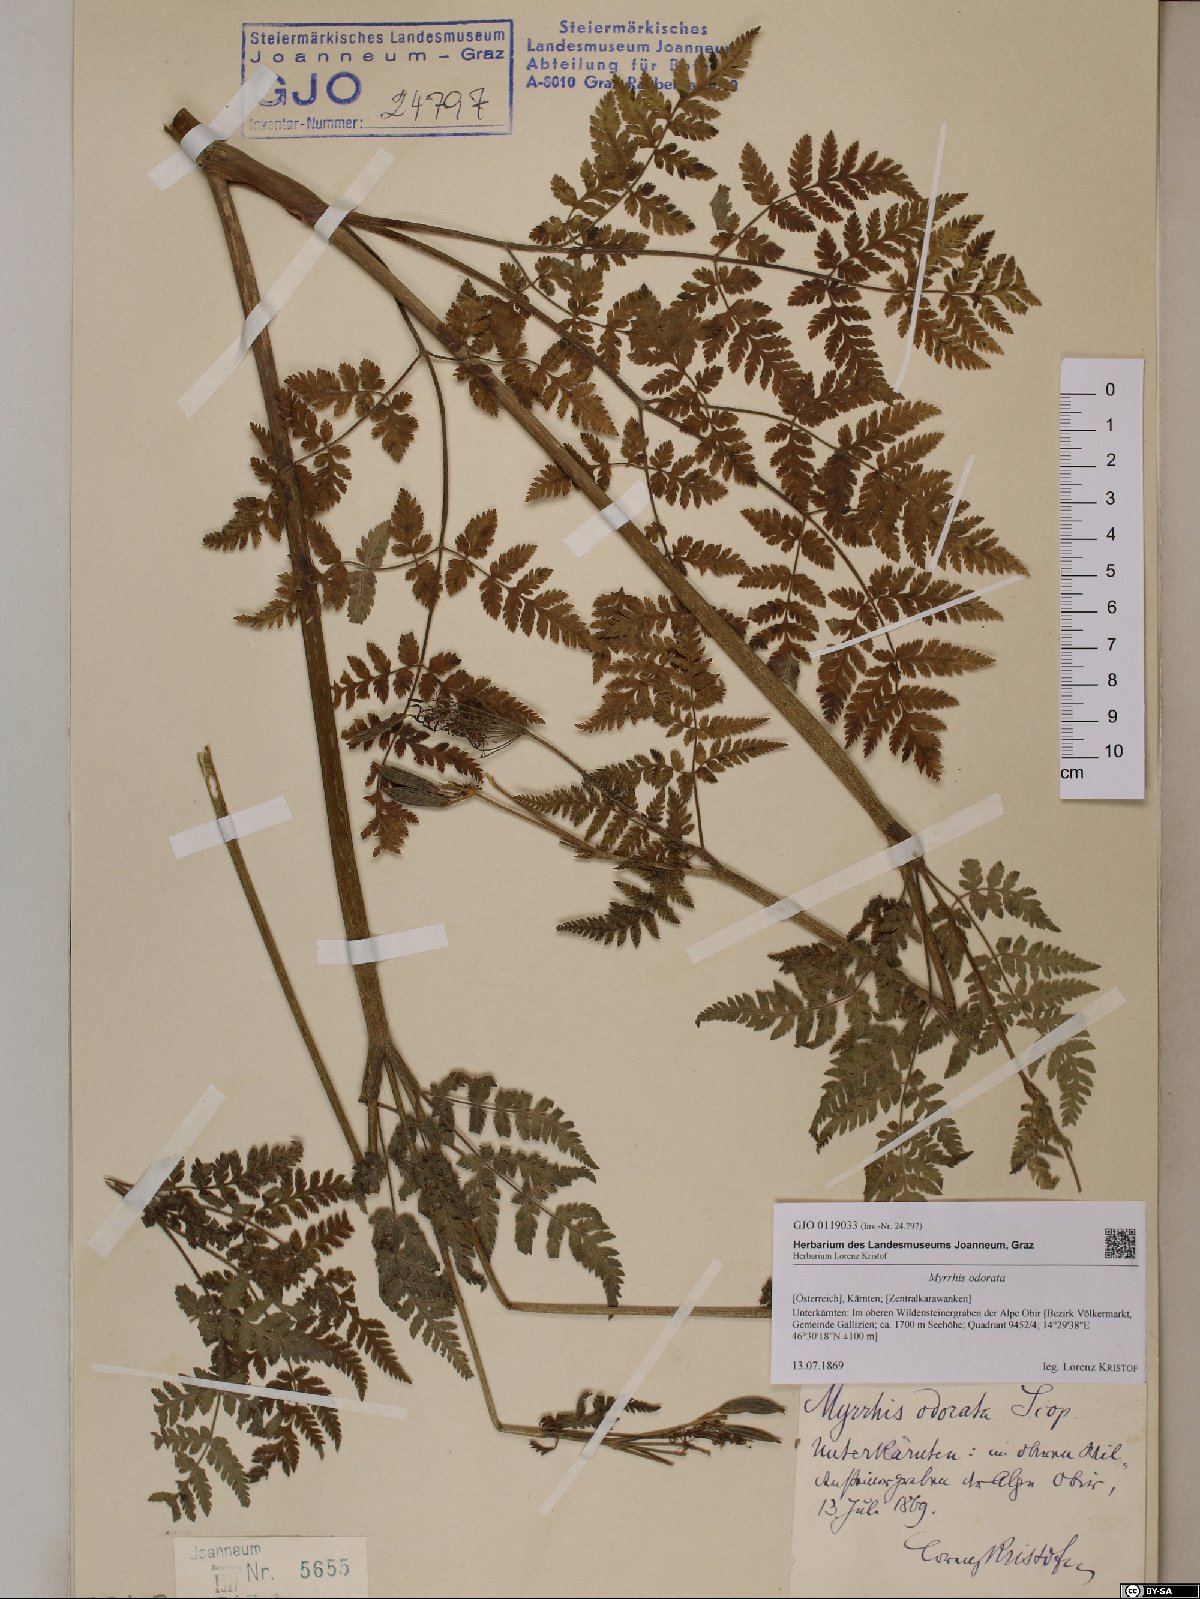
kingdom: Plantae
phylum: Tracheophyta
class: Magnoliopsida
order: Apiales
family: Apiaceae
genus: Myrrhis
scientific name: Myrrhis odorata
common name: Sweet cicely
